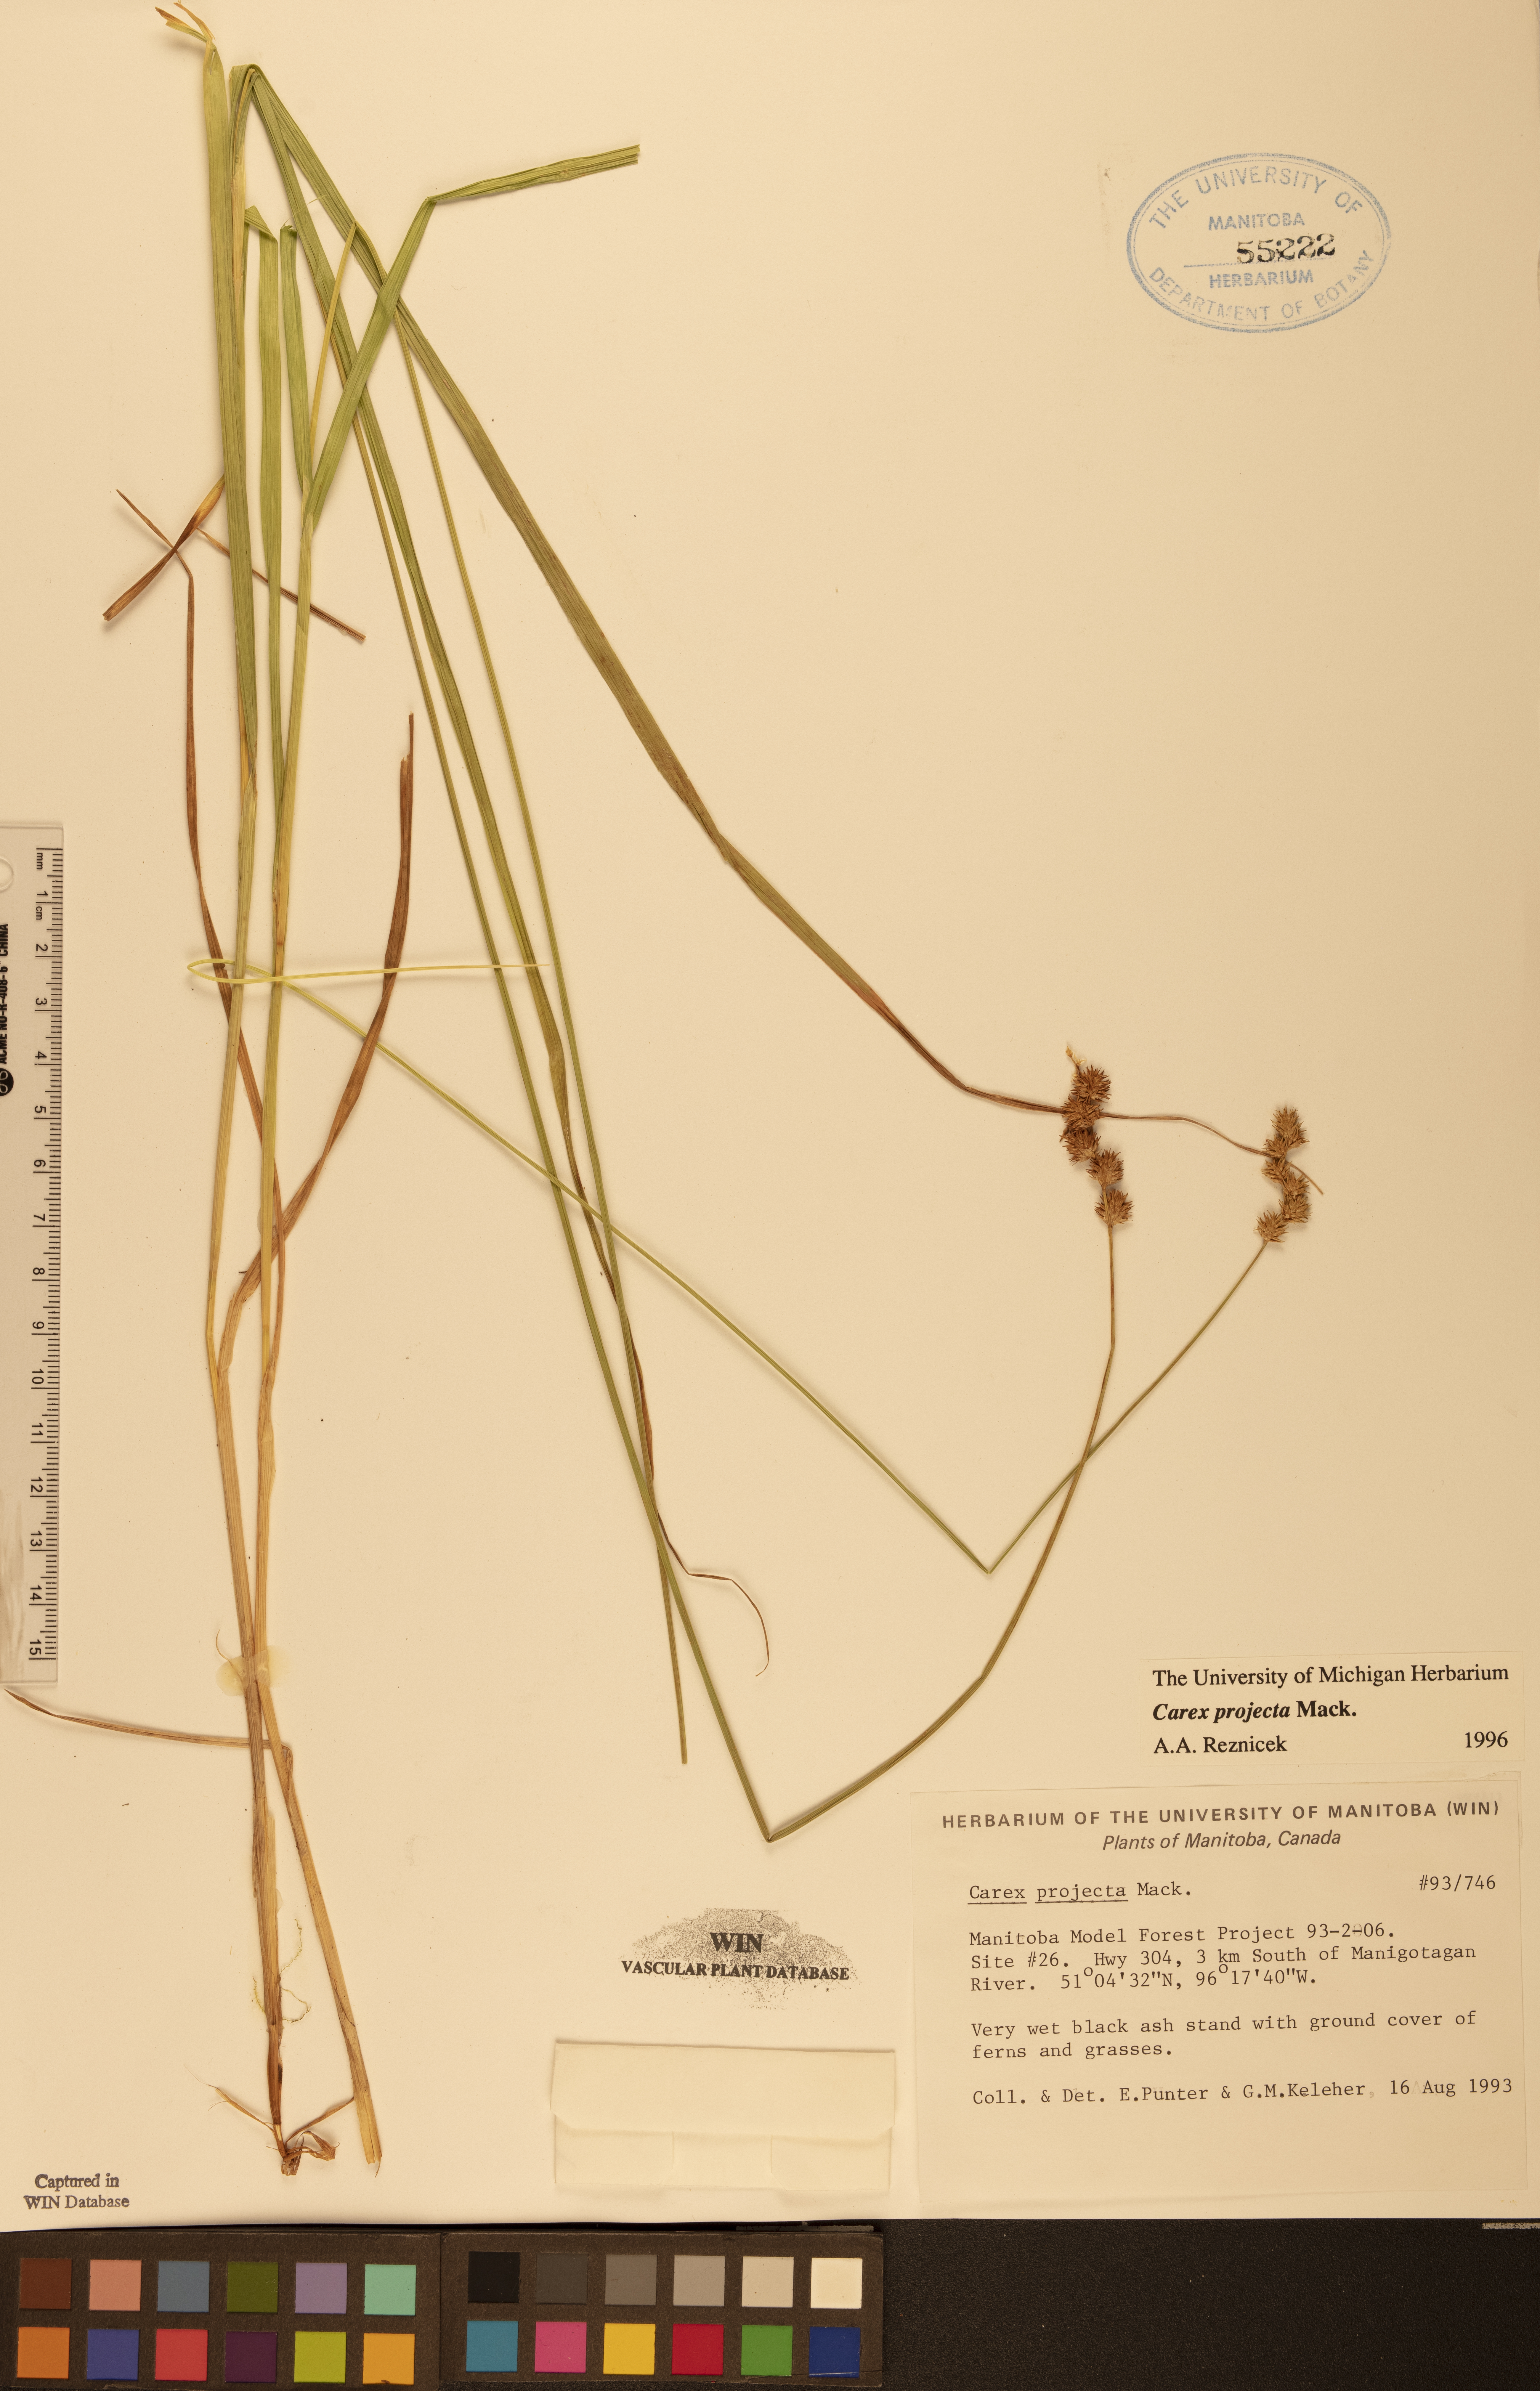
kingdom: Plantae
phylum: Tracheophyta
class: Liliopsida
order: Poales
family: Cyperaceae
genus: Carex
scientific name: Carex projecta
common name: Loose-headed oval sedge
